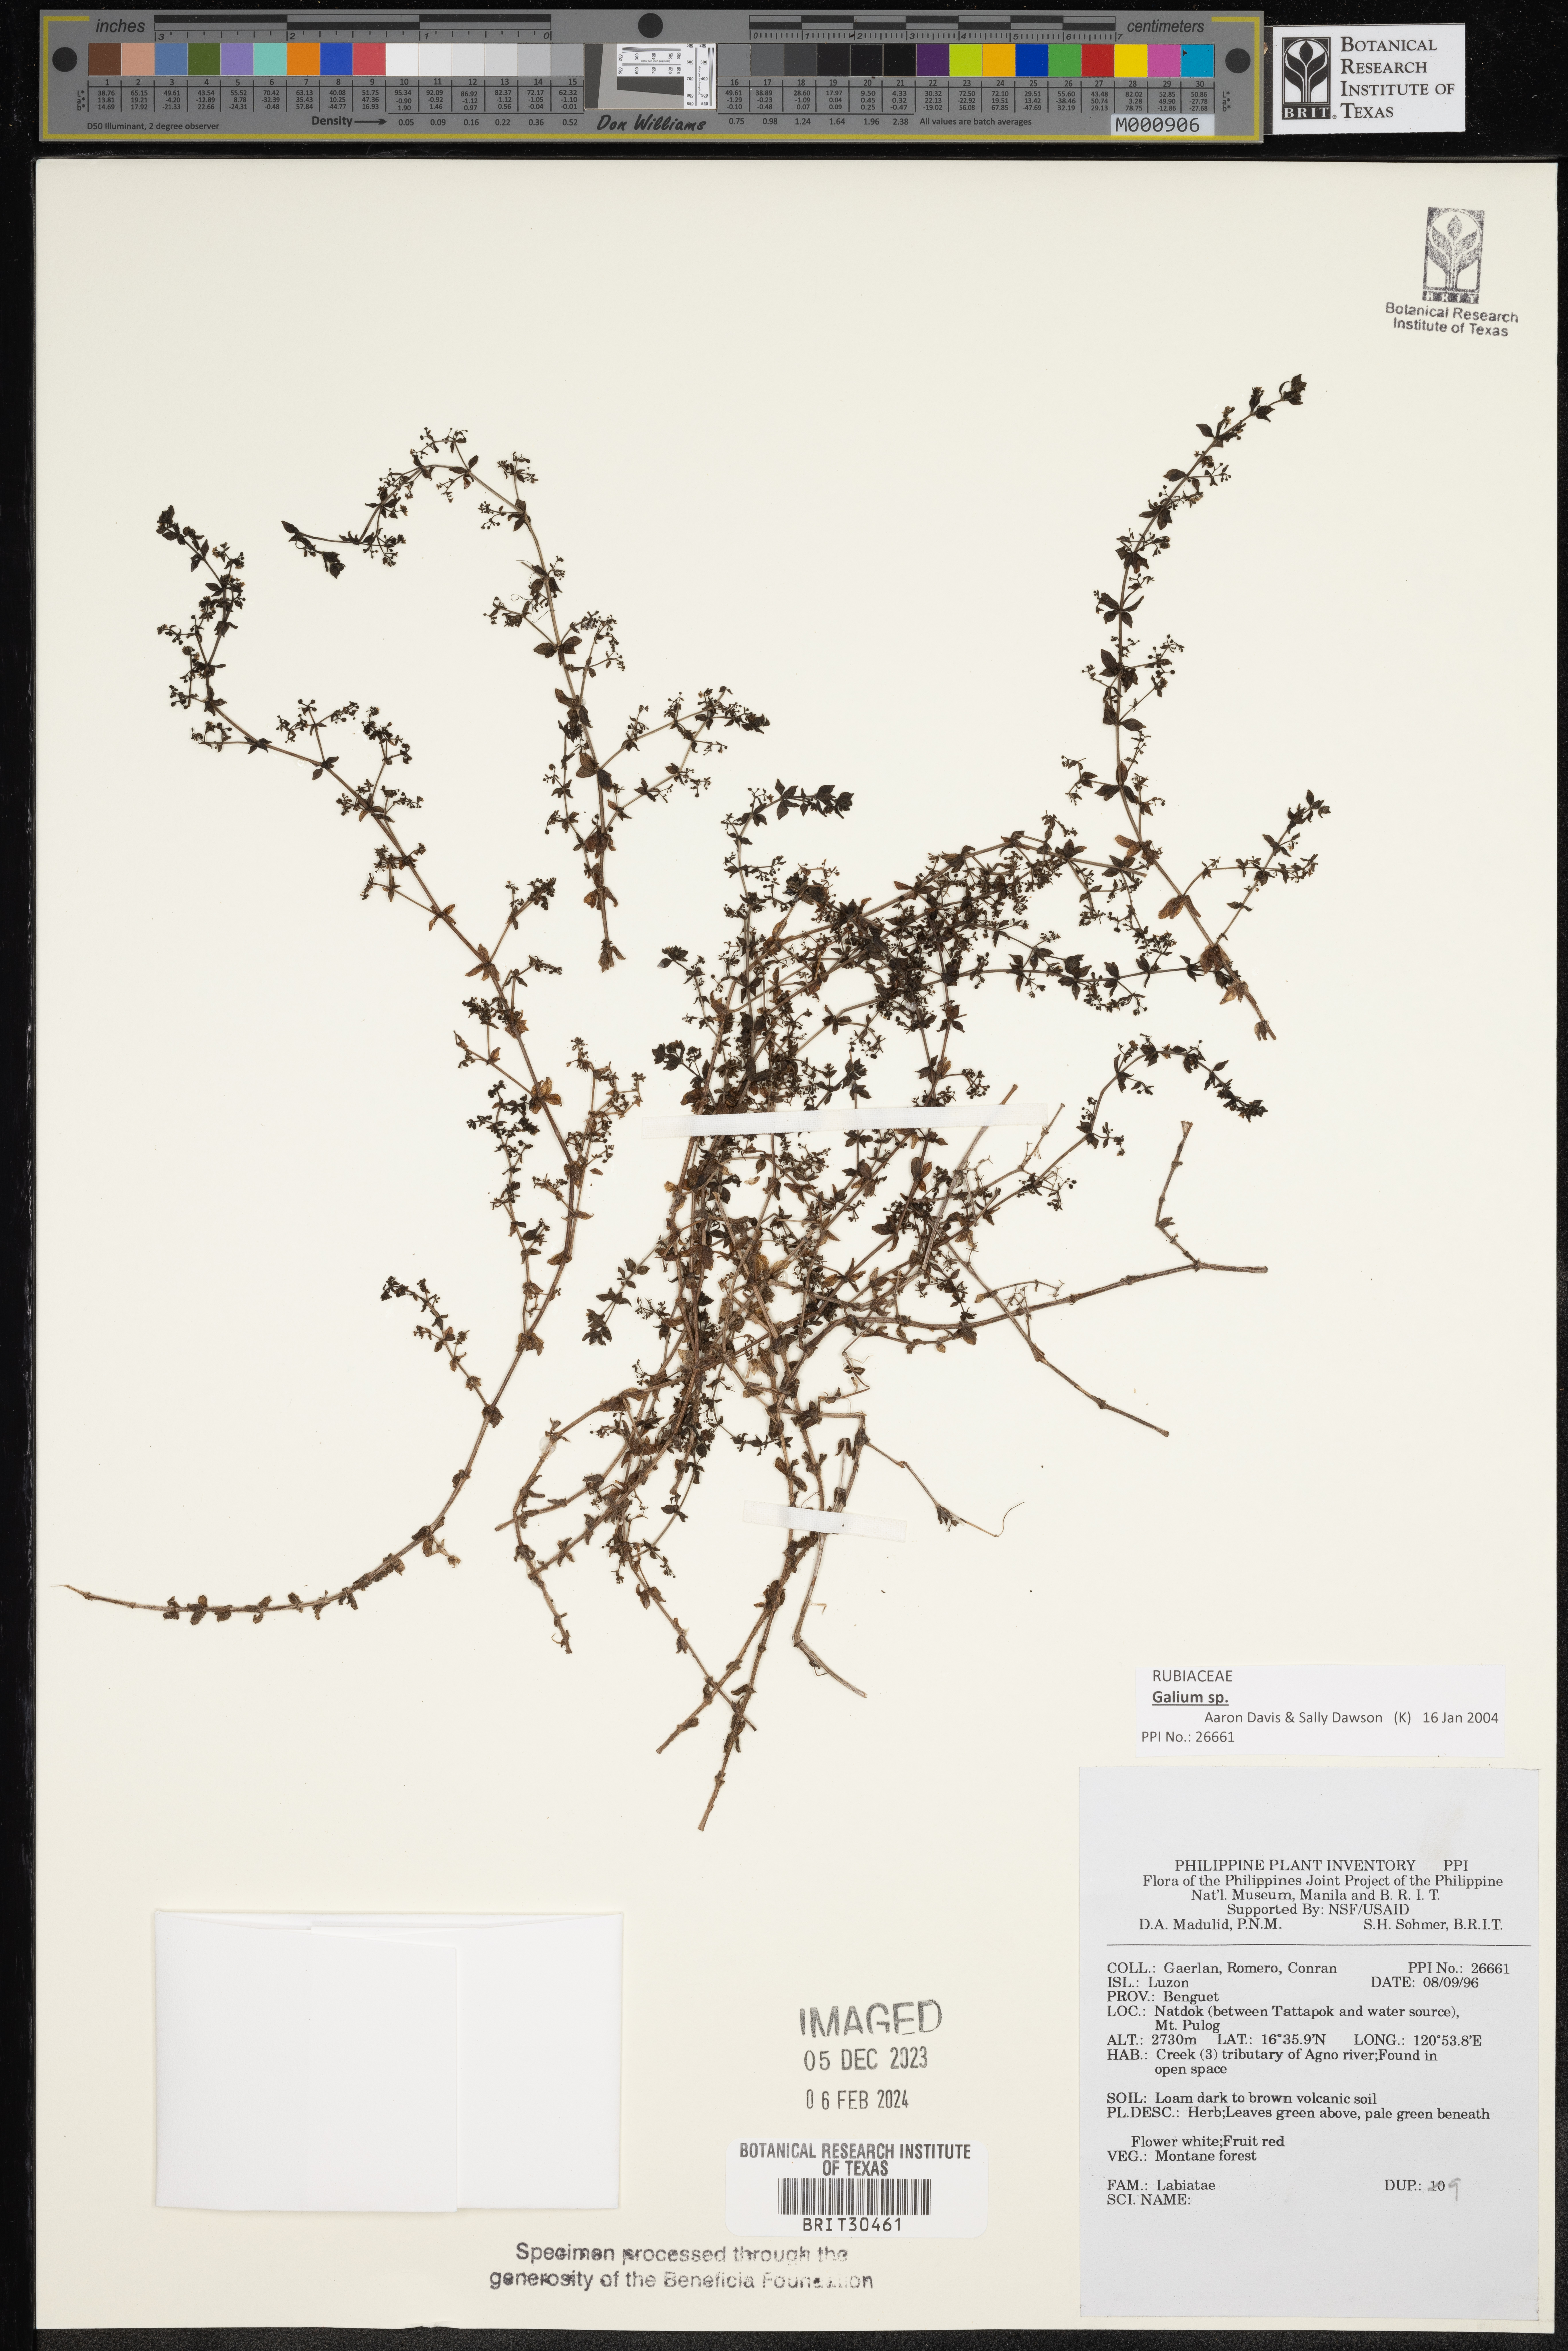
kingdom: Plantae
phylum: Tracheophyta
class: Magnoliopsida
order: Lamiales
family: Lamiaceae
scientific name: Lamiaceae
